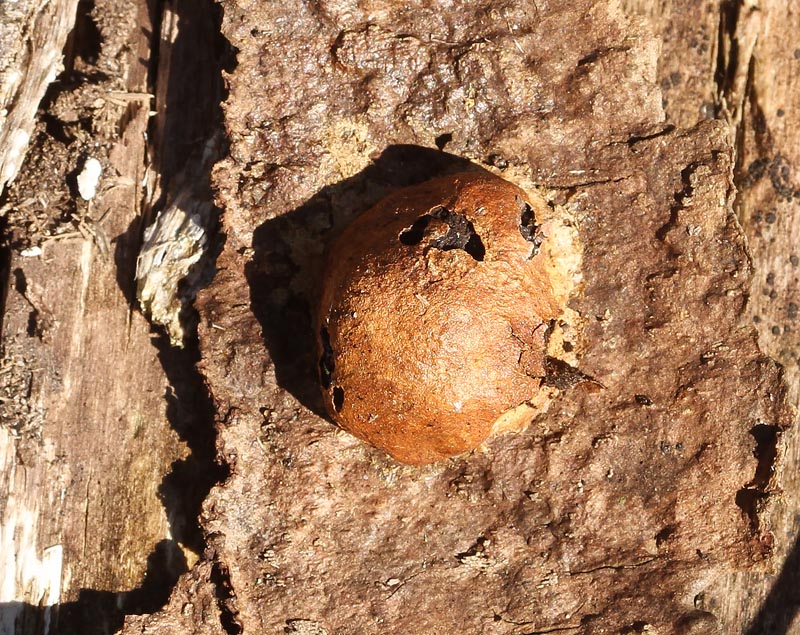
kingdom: Protozoa
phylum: Mycetozoa
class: Myxomycetes
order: Physarales
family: Physaraceae
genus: Fuligo
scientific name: Fuligo leviderma
